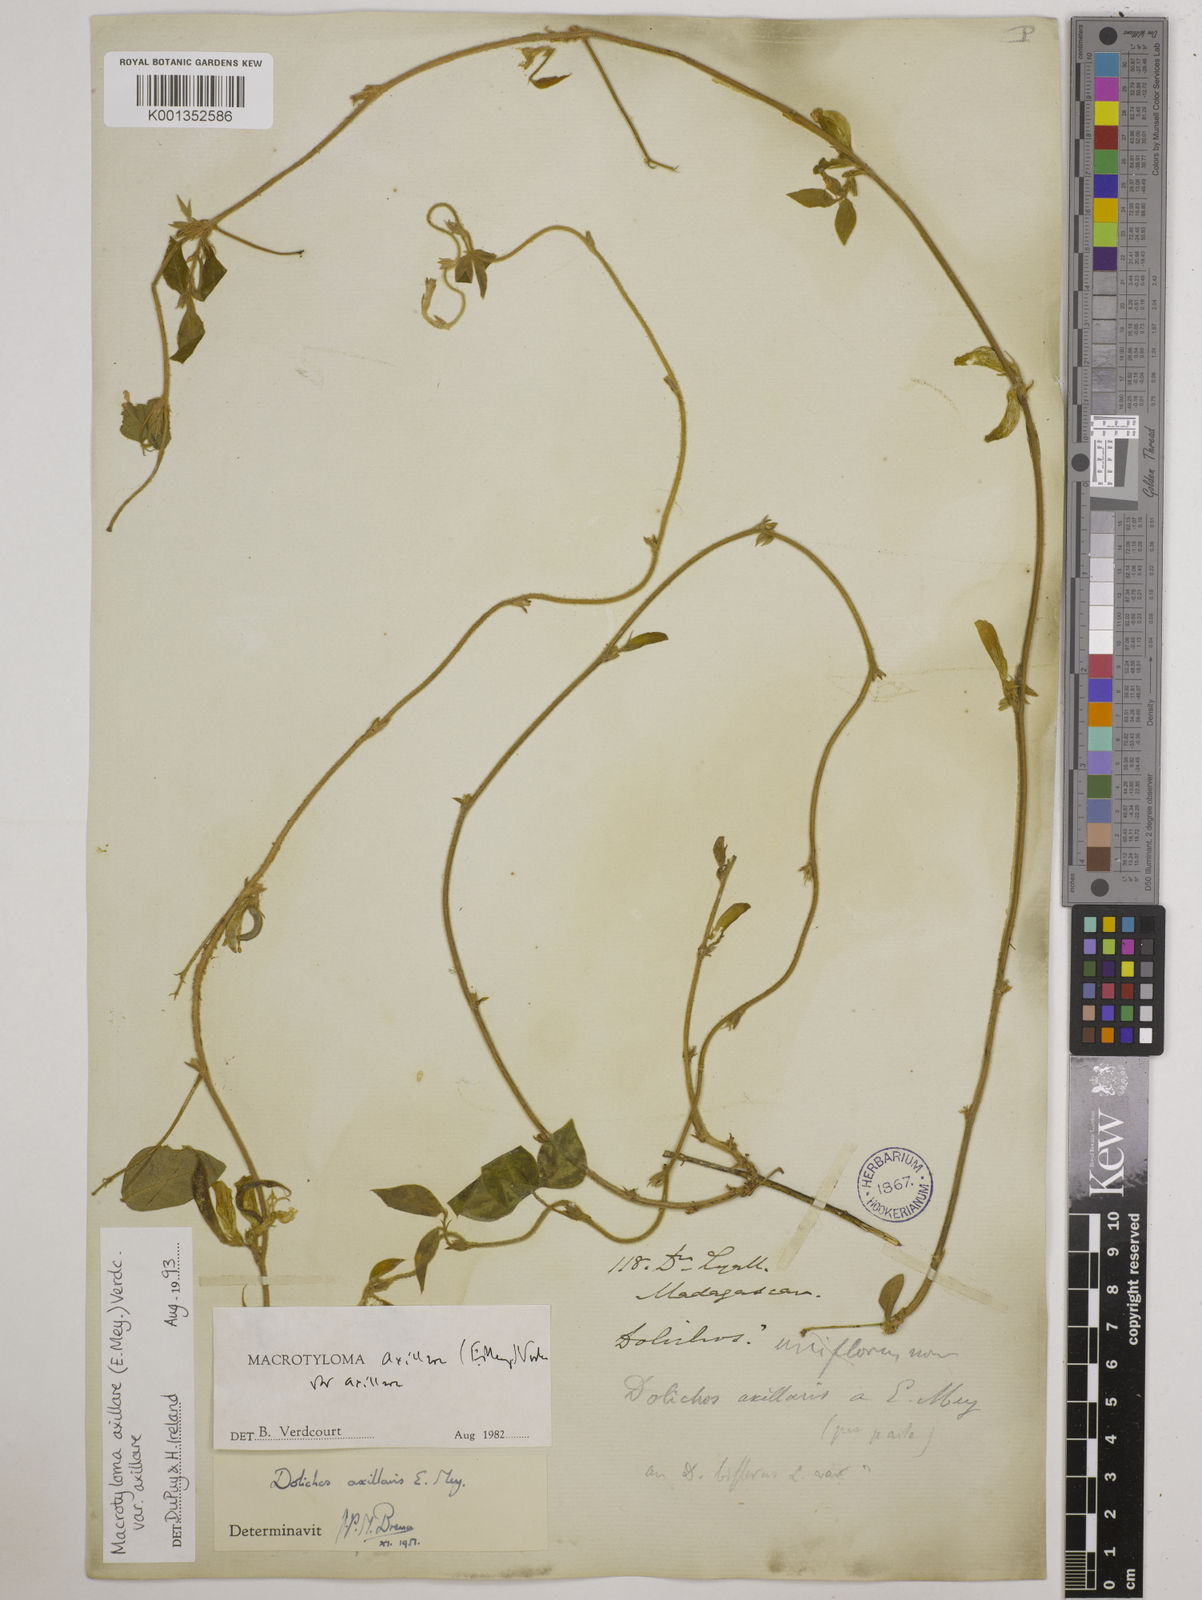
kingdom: Plantae
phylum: Tracheophyta
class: Magnoliopsida
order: Fabales
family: Fabaceae
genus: Macrotyloma
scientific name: Macrotyloma axillare
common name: Perennial horsegram
